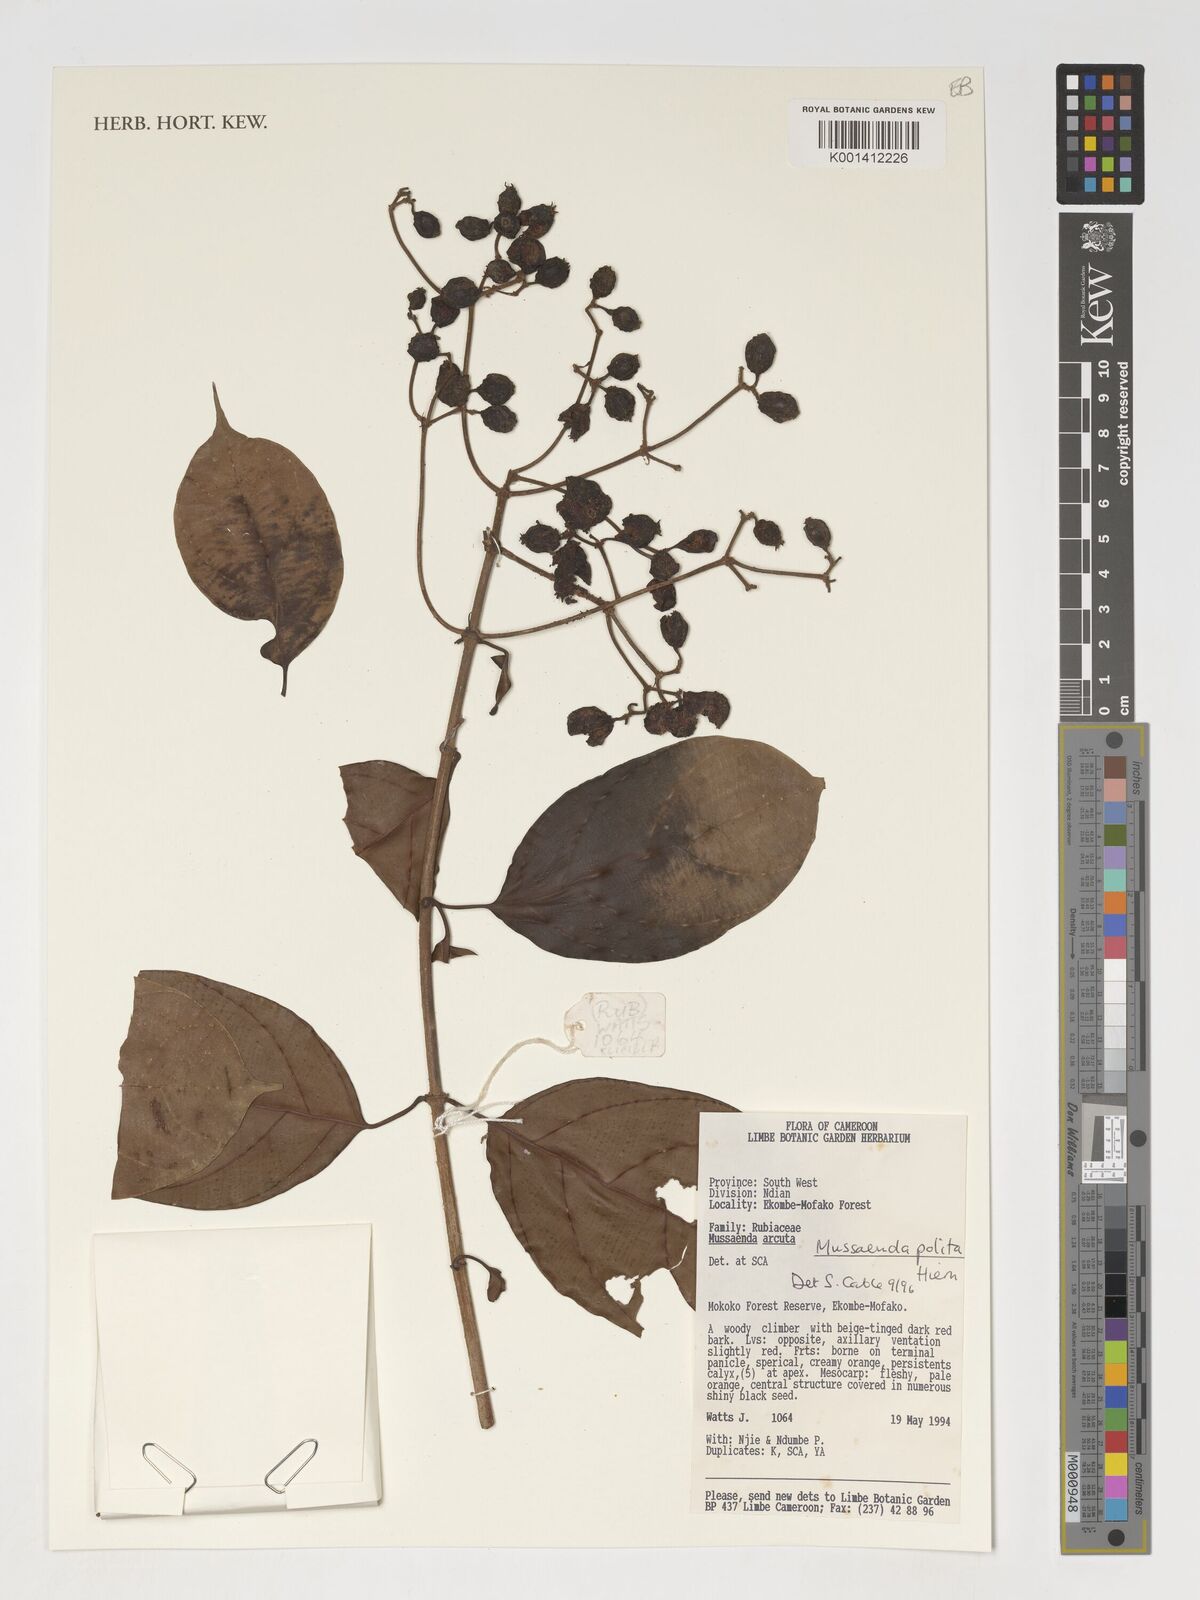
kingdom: Plantae
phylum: Tracheophyta
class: Magnoliopsida
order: Gentianales
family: Rubiaceae
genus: Mussaenda
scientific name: Mussaenda polita
